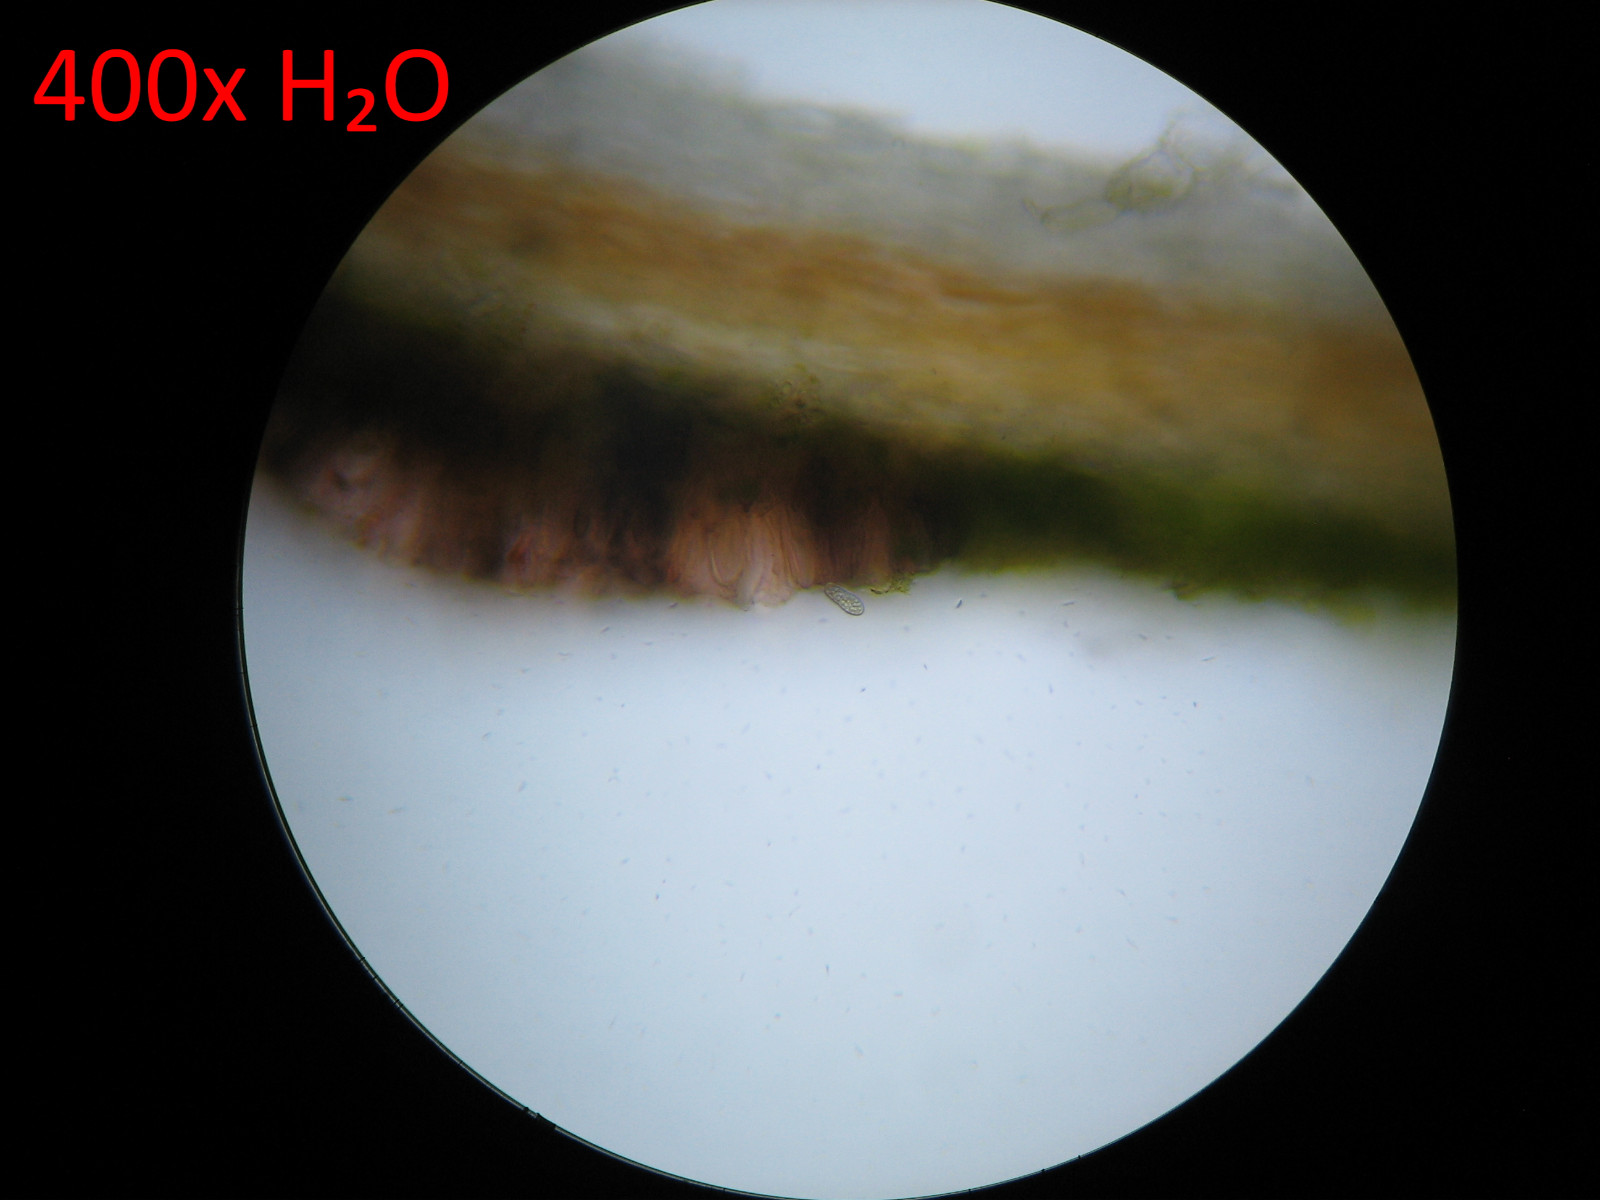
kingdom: Fungi
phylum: Ascomycota
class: Arthoniomycetes
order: Arthoniales
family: Arthoniaceae
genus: Arthonia
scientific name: Arthonia didyma
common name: oliven-pletlav
